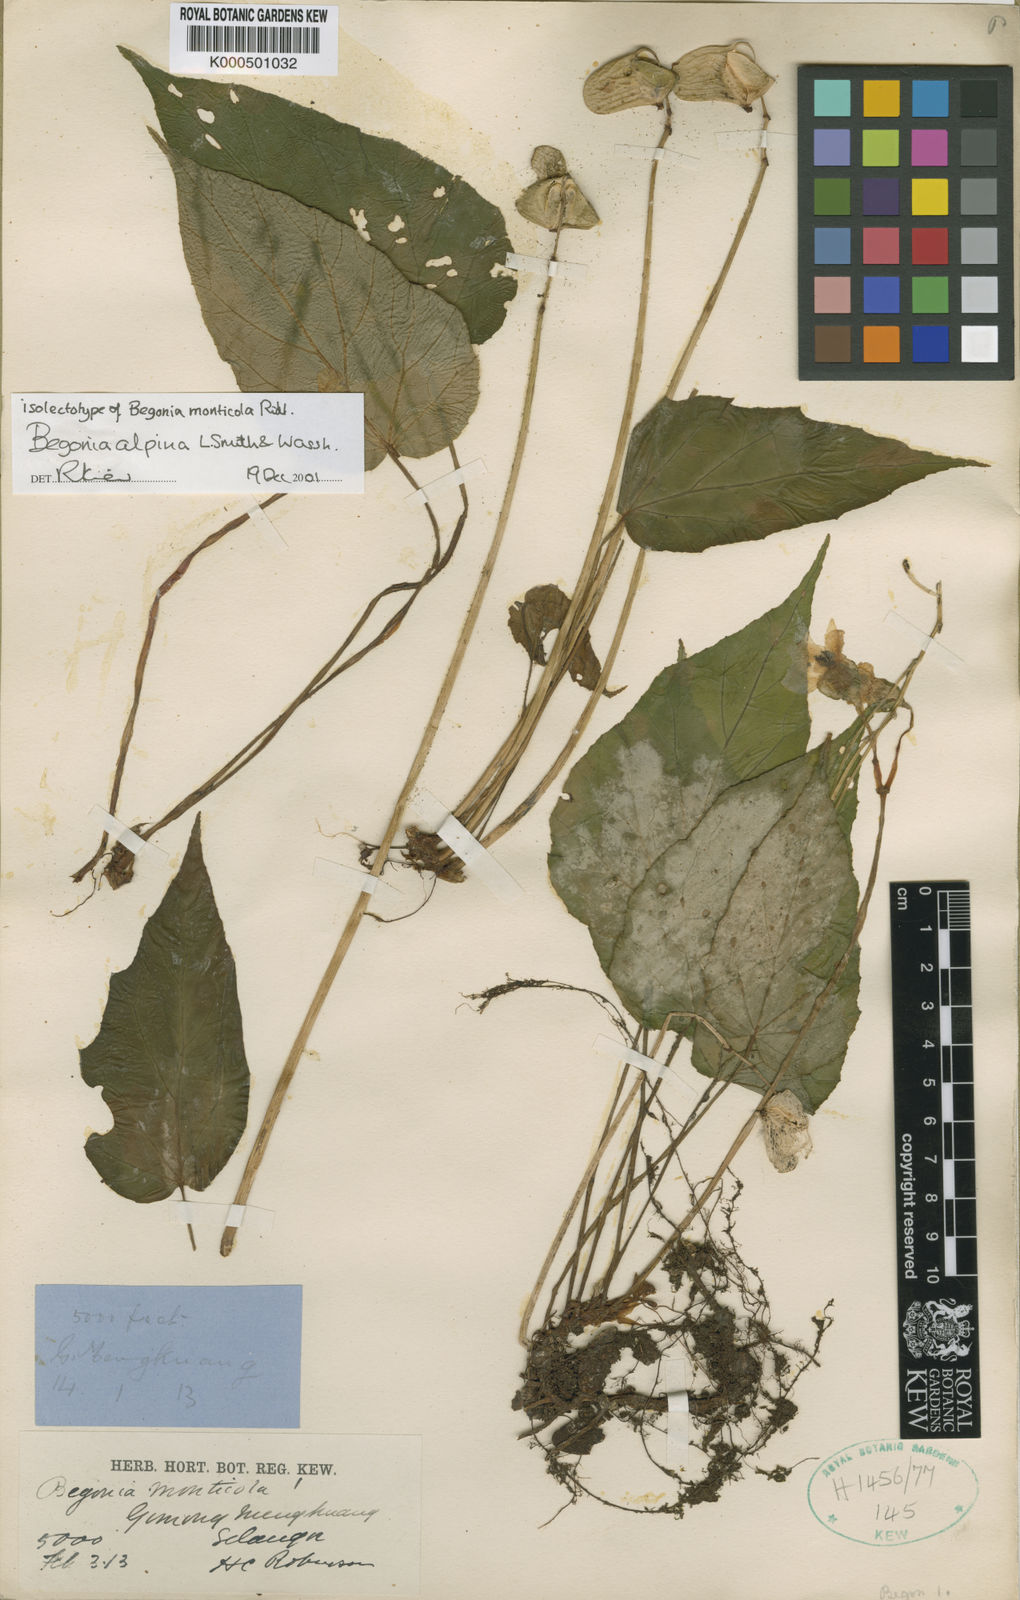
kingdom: Plantae
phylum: Tracheophyta
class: Magnoliopsida
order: Cucurbitales
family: Begoniaceae
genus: Begonia
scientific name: Begonia alpina
